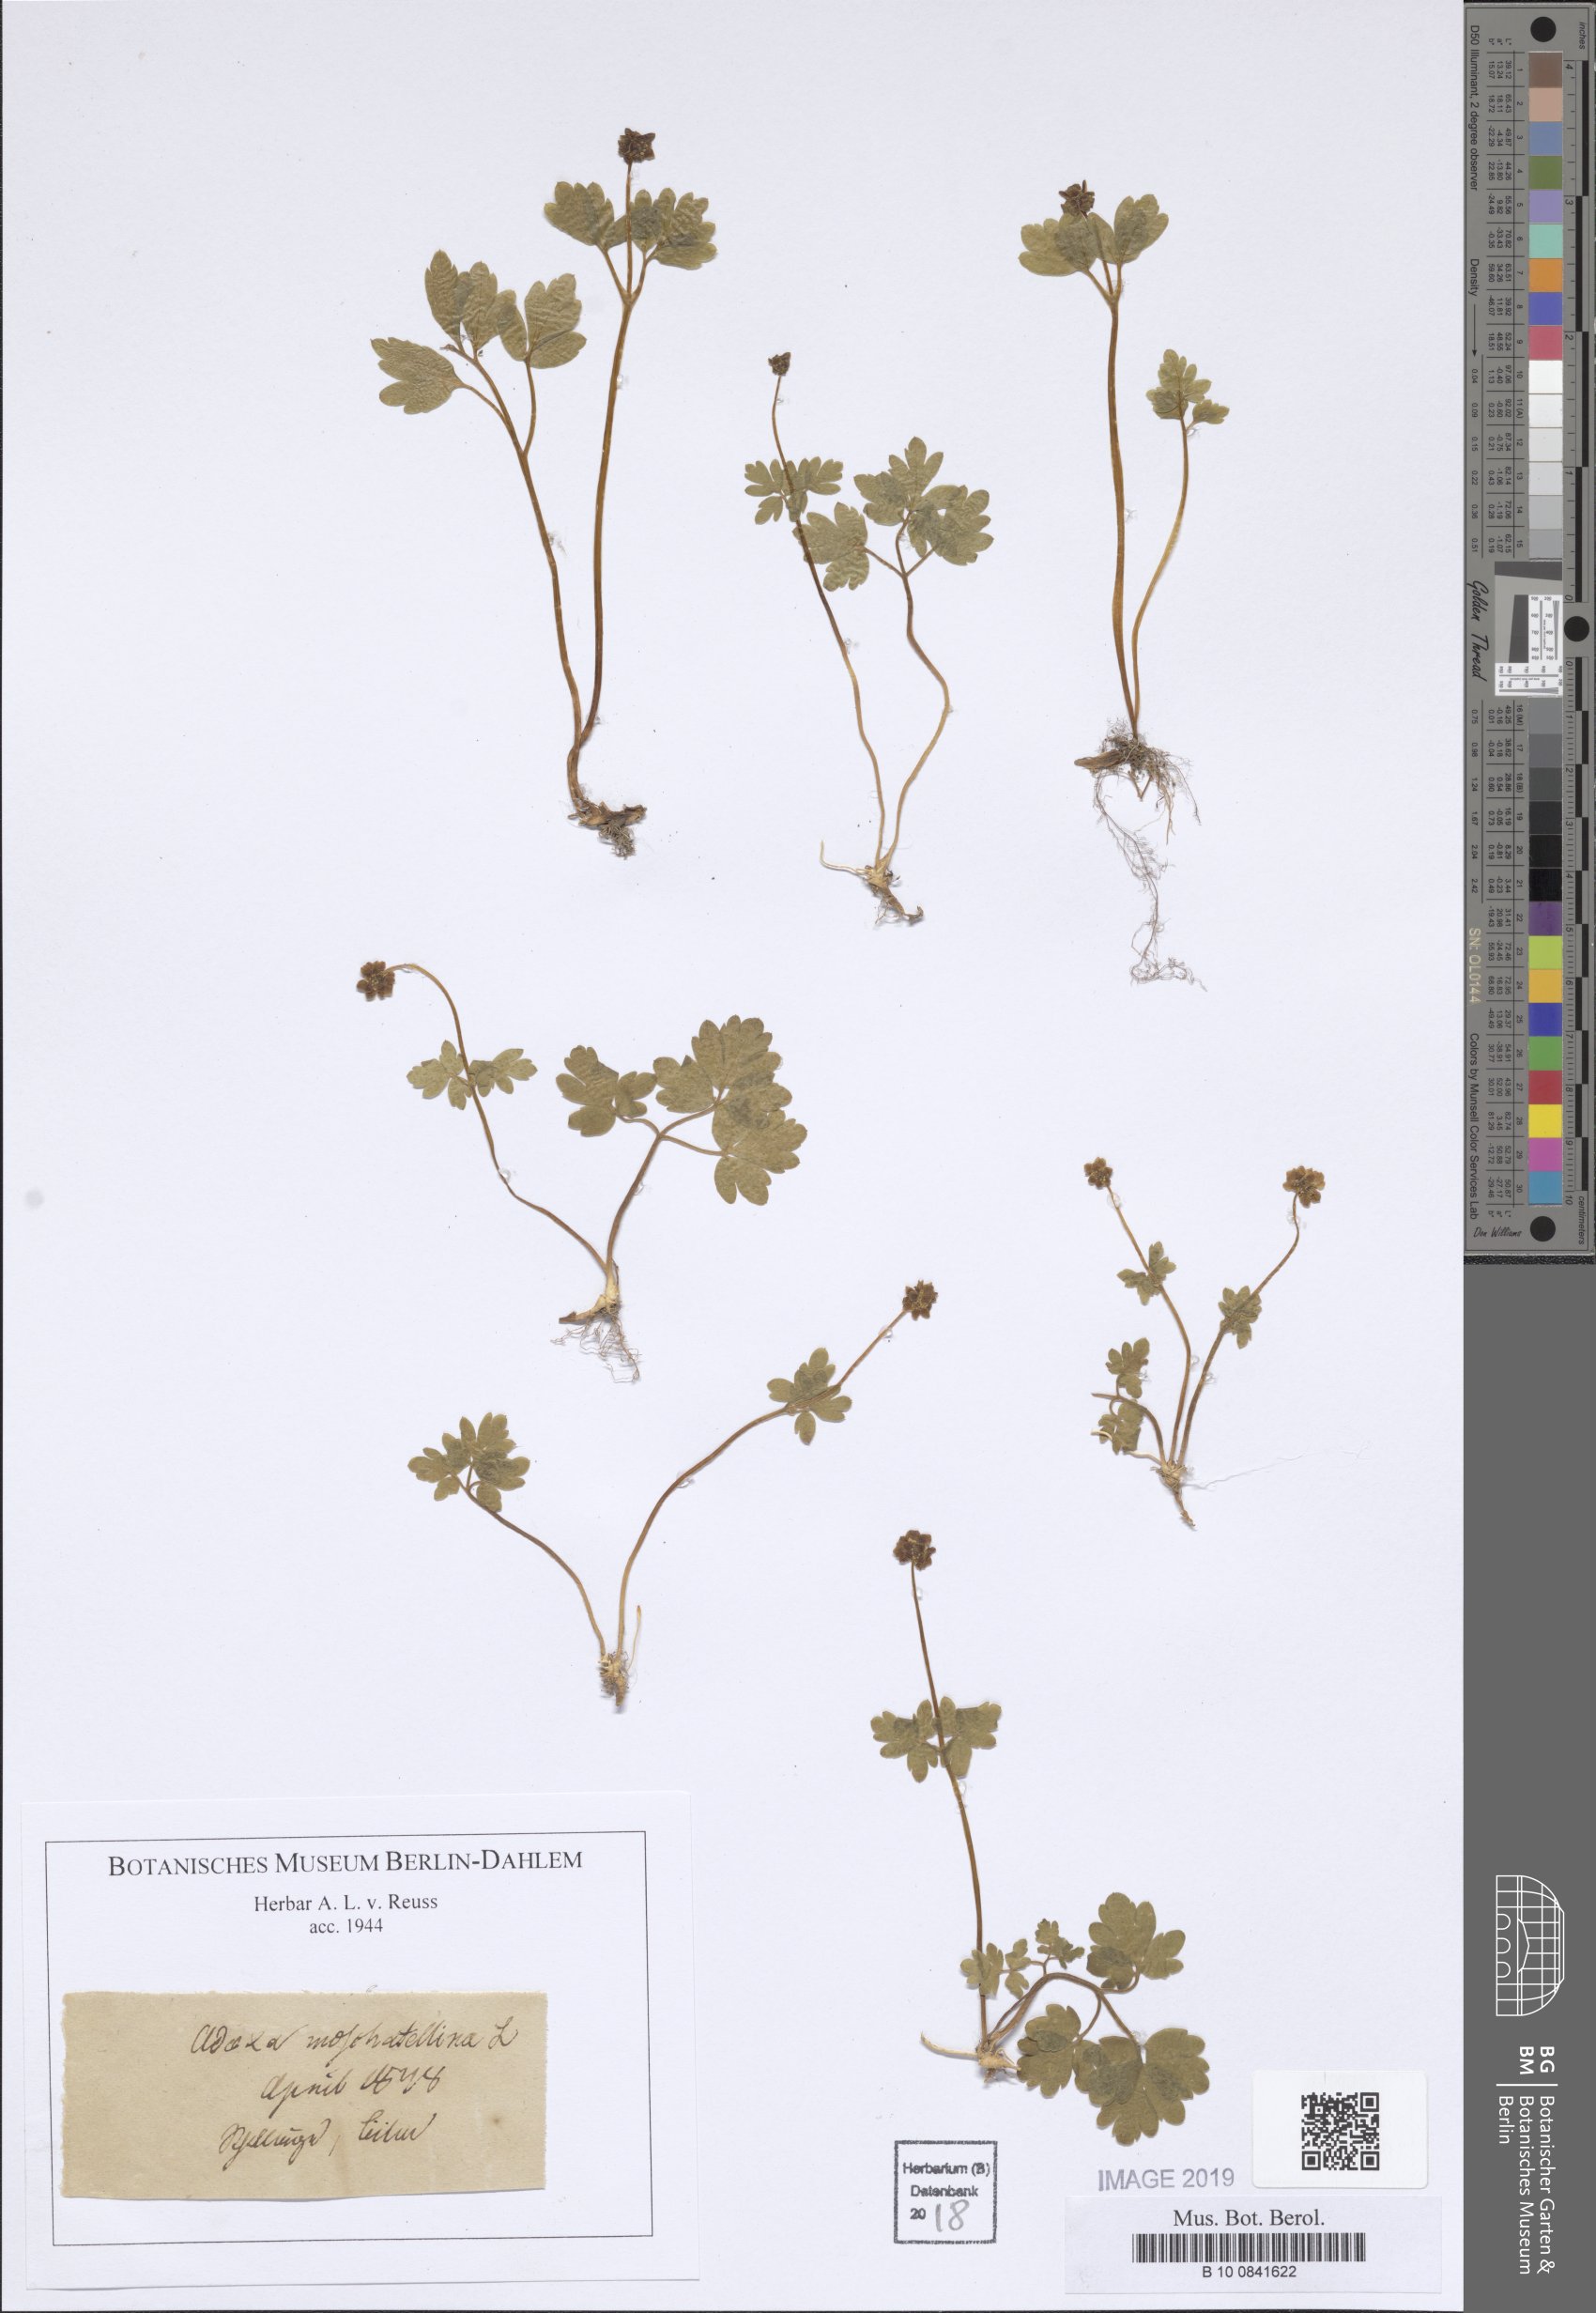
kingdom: Plantae
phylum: Tracheophyta
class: Magnoliopsida
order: Dipsacales
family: Viburnaceae
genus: Adoxa
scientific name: Adoxa moschatellina
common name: Moschatel
